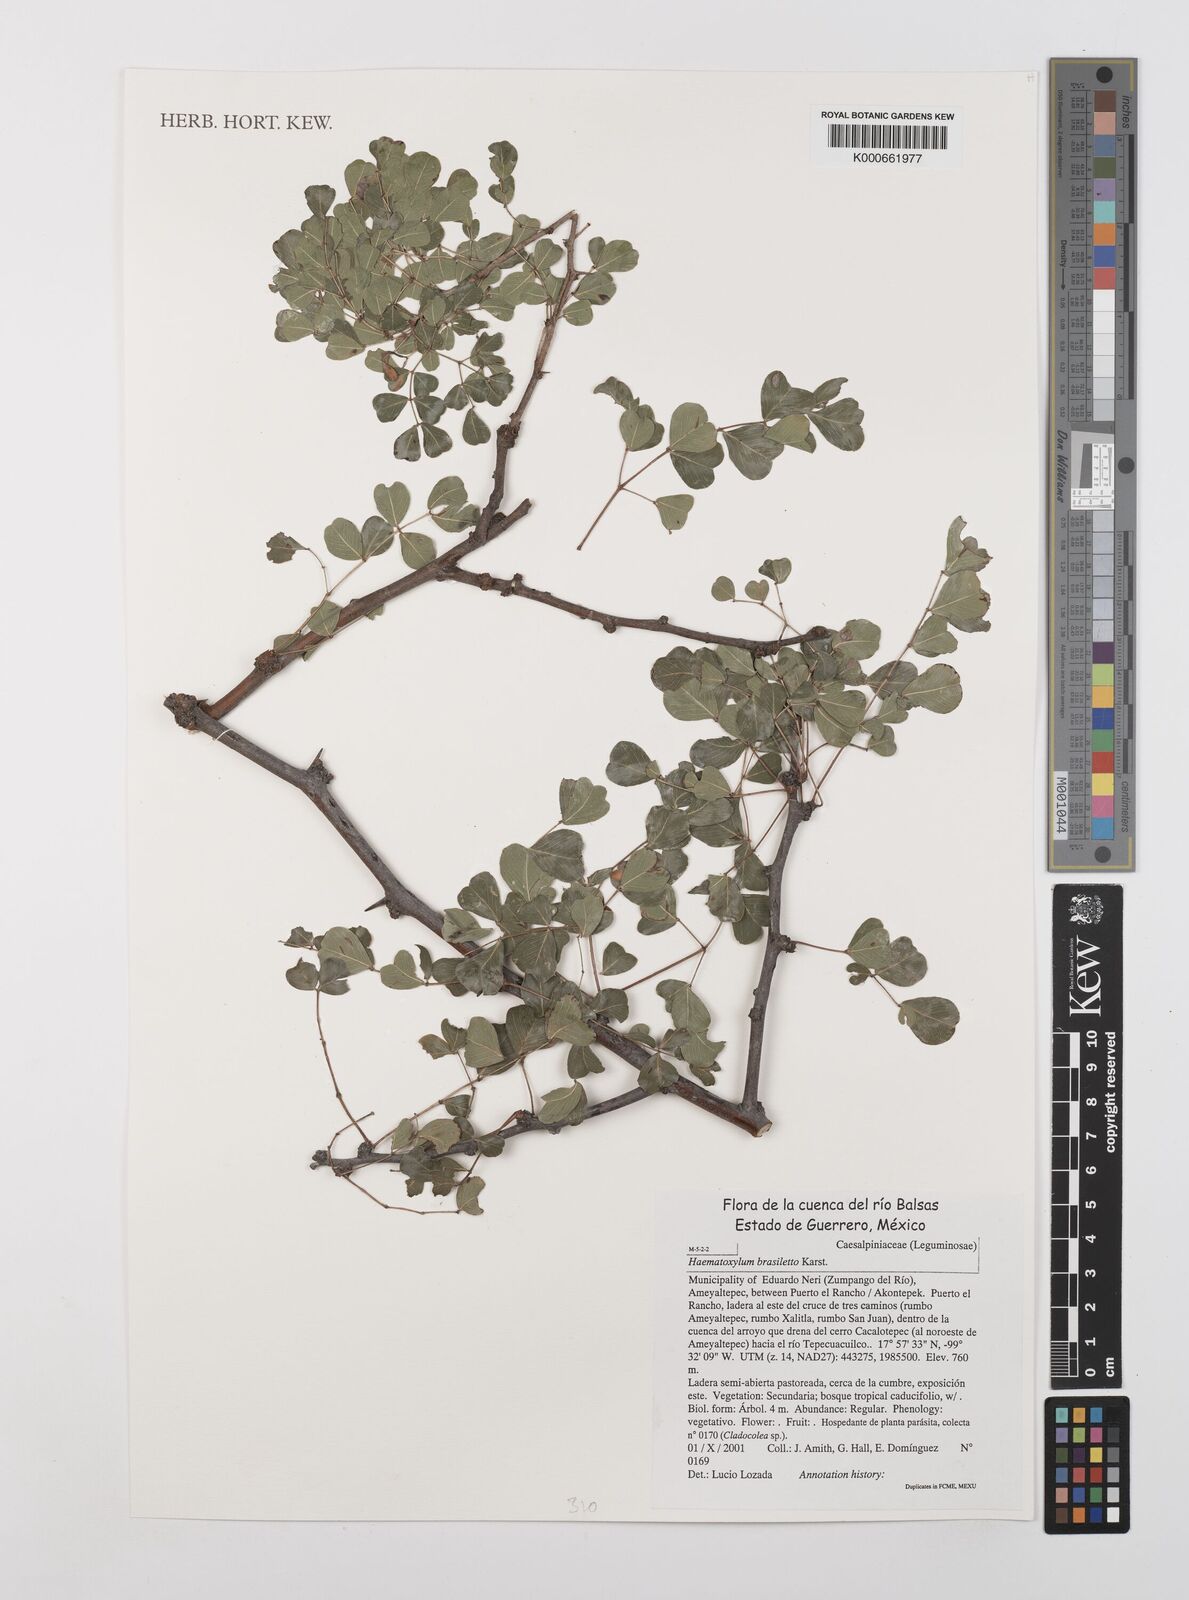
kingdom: Plantae
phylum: Tracheophyta
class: Magnoliopsida
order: Fabales
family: Fabaceae
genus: Haematoxylum
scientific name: Haematoxylum brasiletto
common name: Peachwood
